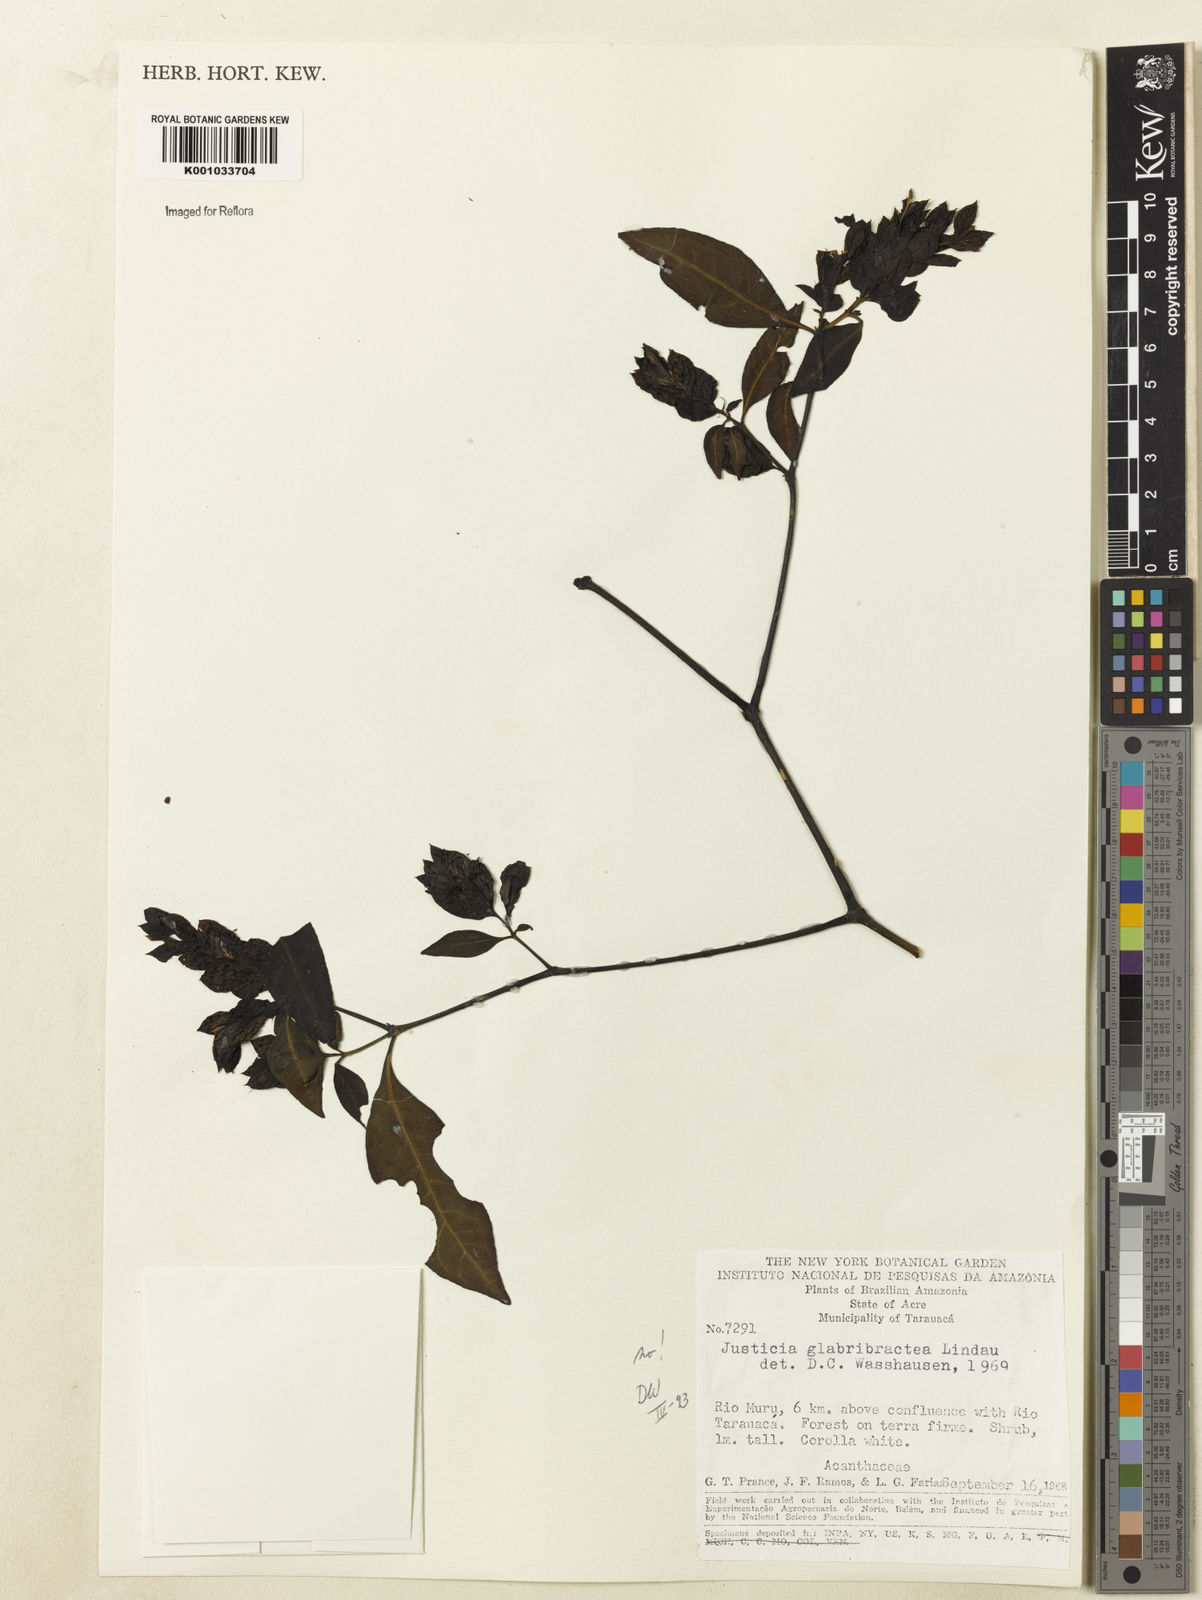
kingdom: Plantae
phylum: Tracheophyta
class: Magnoliopsida
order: Lamiales
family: Acanthaceae
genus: Justicia
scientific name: Justicia
